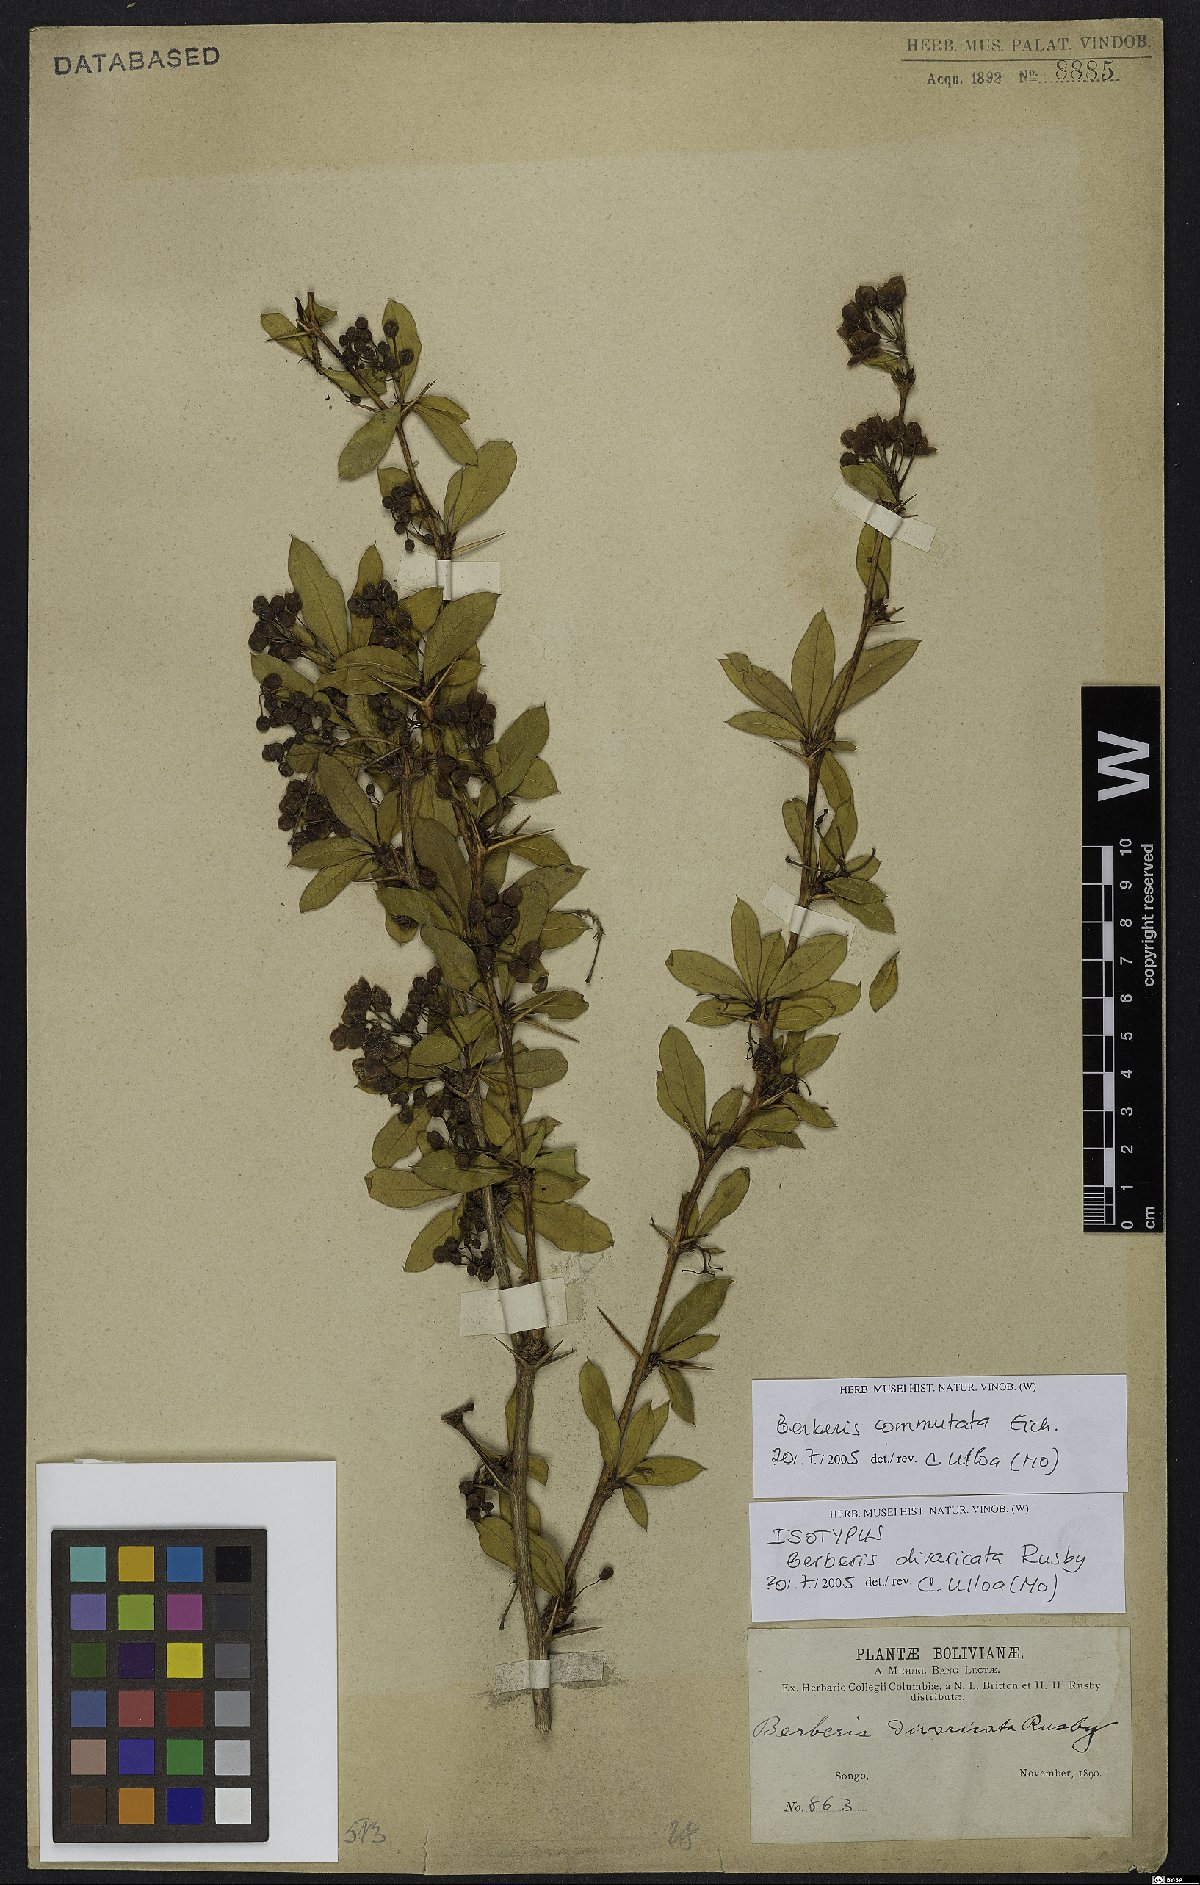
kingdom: Plantae
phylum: Tracheophyta
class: Magnoliopsida
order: Ranunculales
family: Berberidaceae
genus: Berberis
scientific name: Berberis commutata
